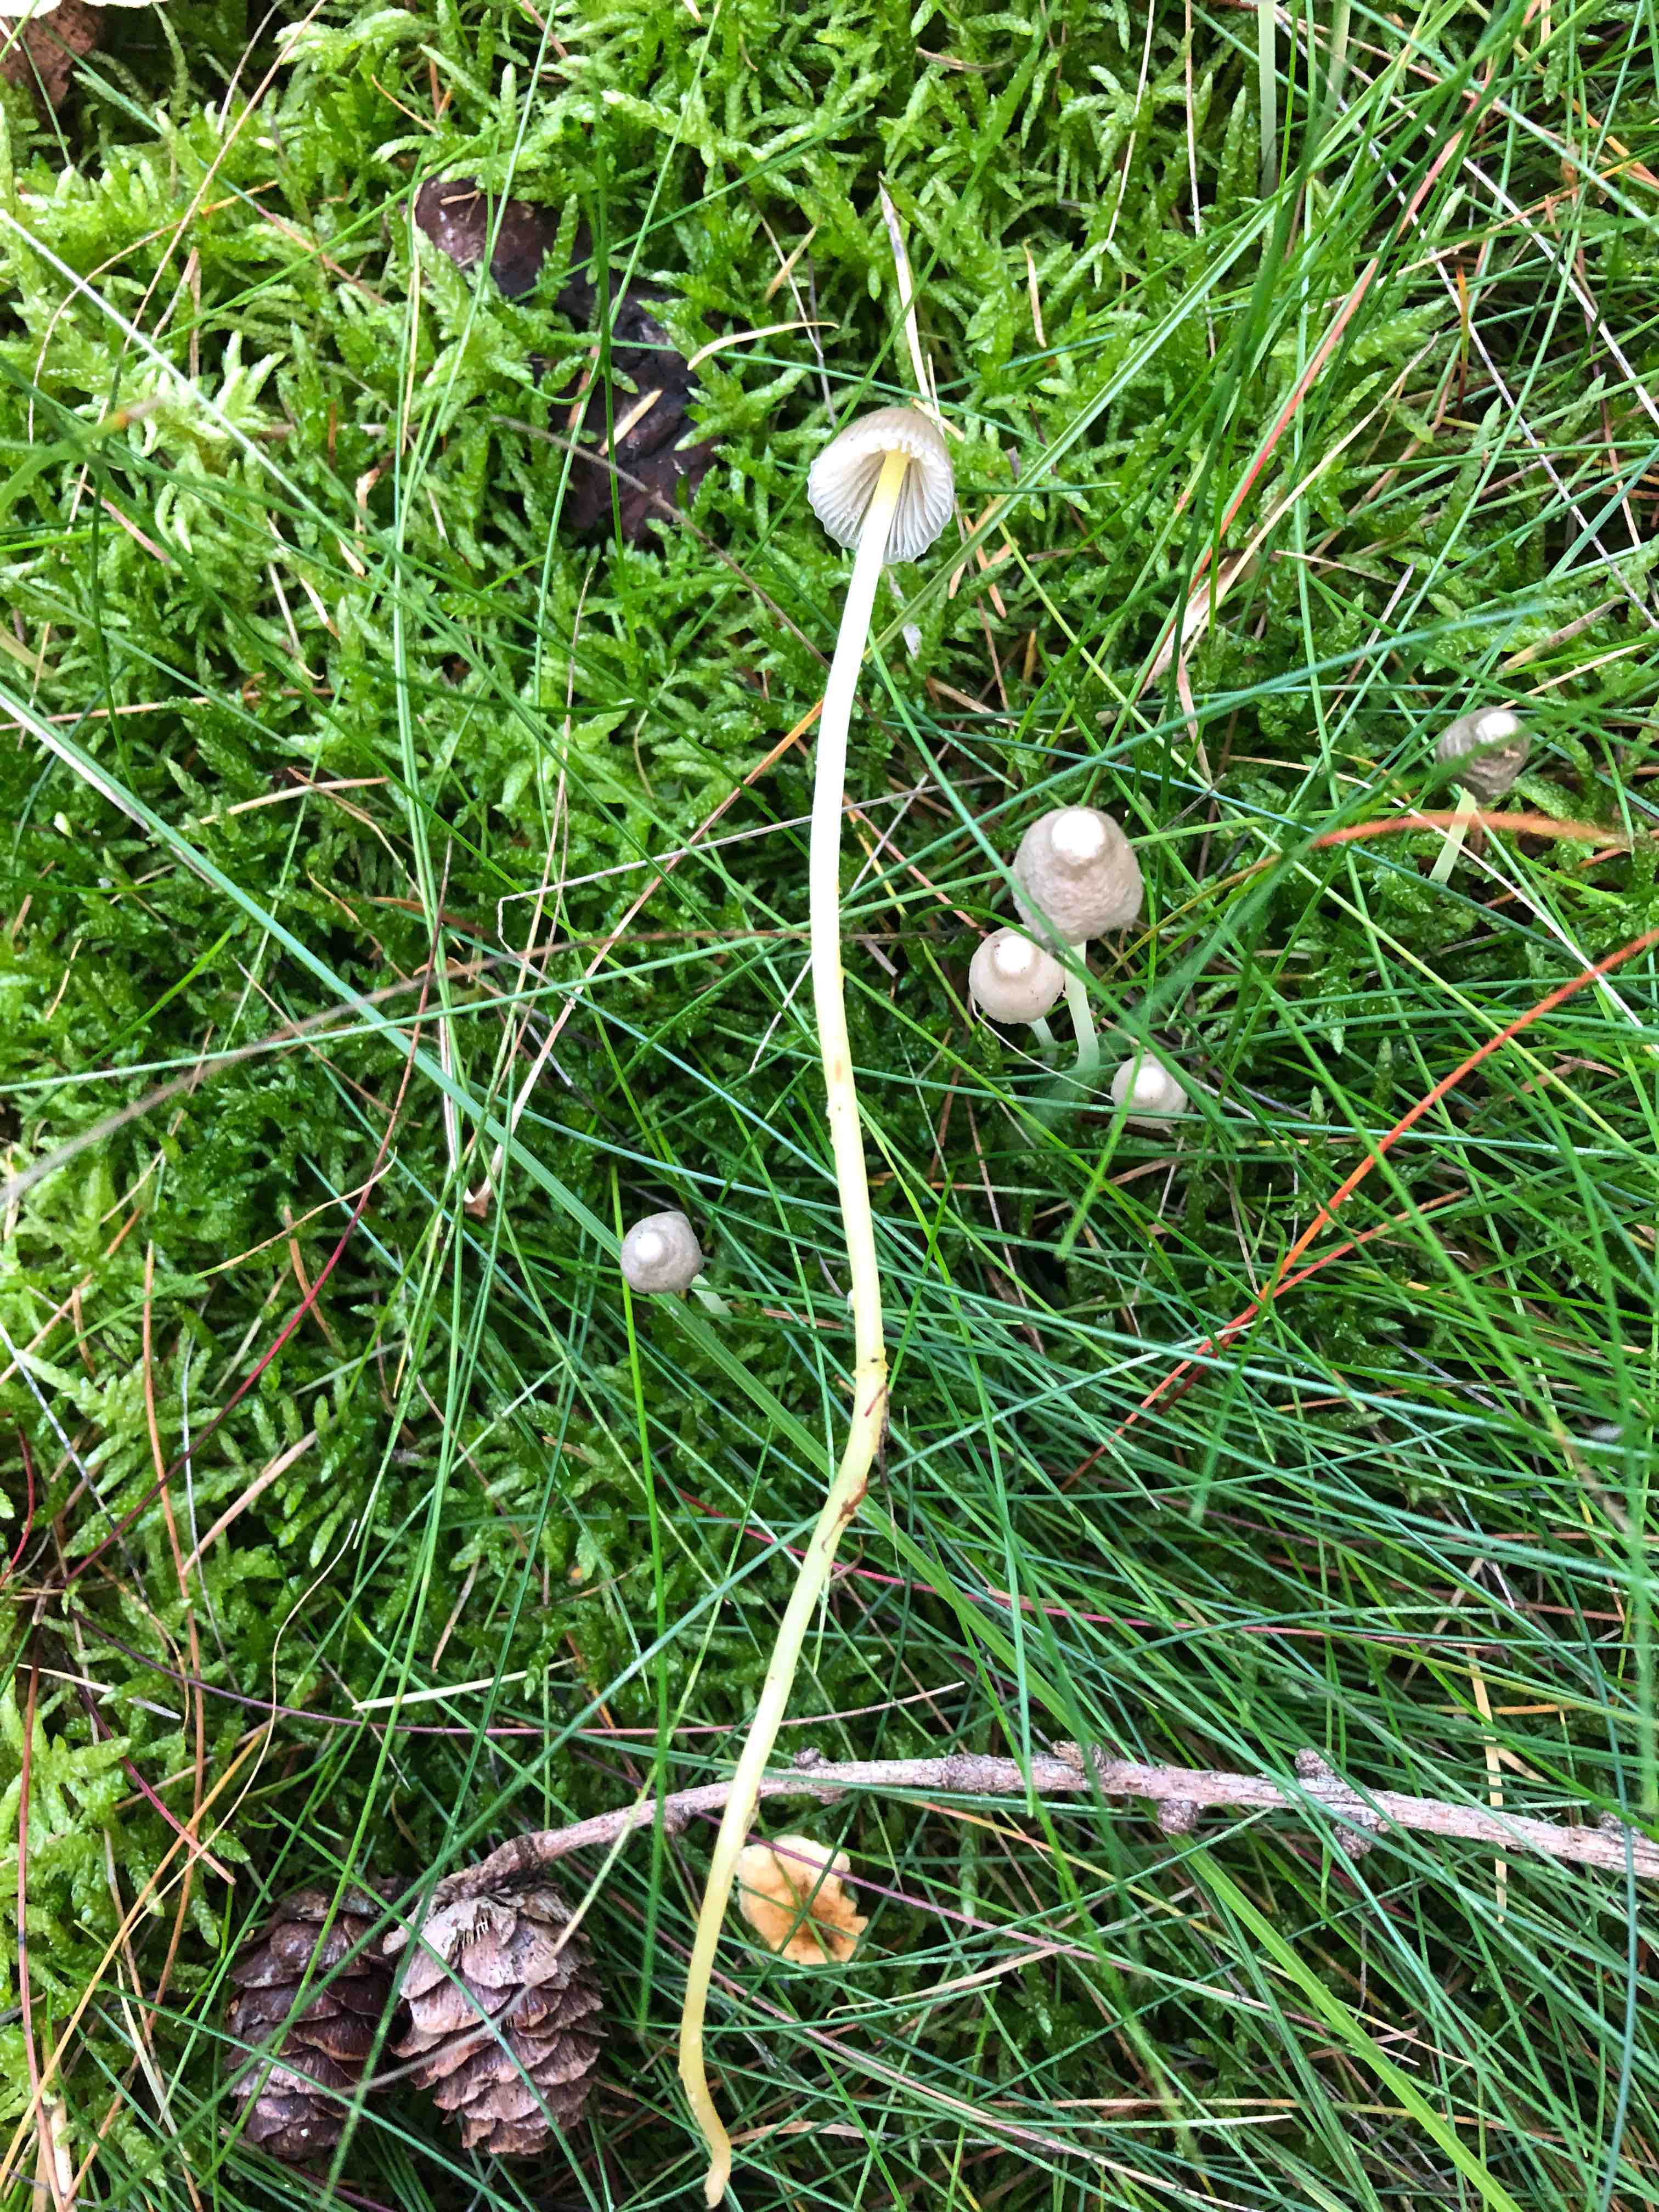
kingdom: Fungi
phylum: Basidiomycota
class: Agaricomycetes
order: Agaricales
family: Mycenaceae
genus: Mycena
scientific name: Mycena epipterygia
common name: gulstokket huesvamp
